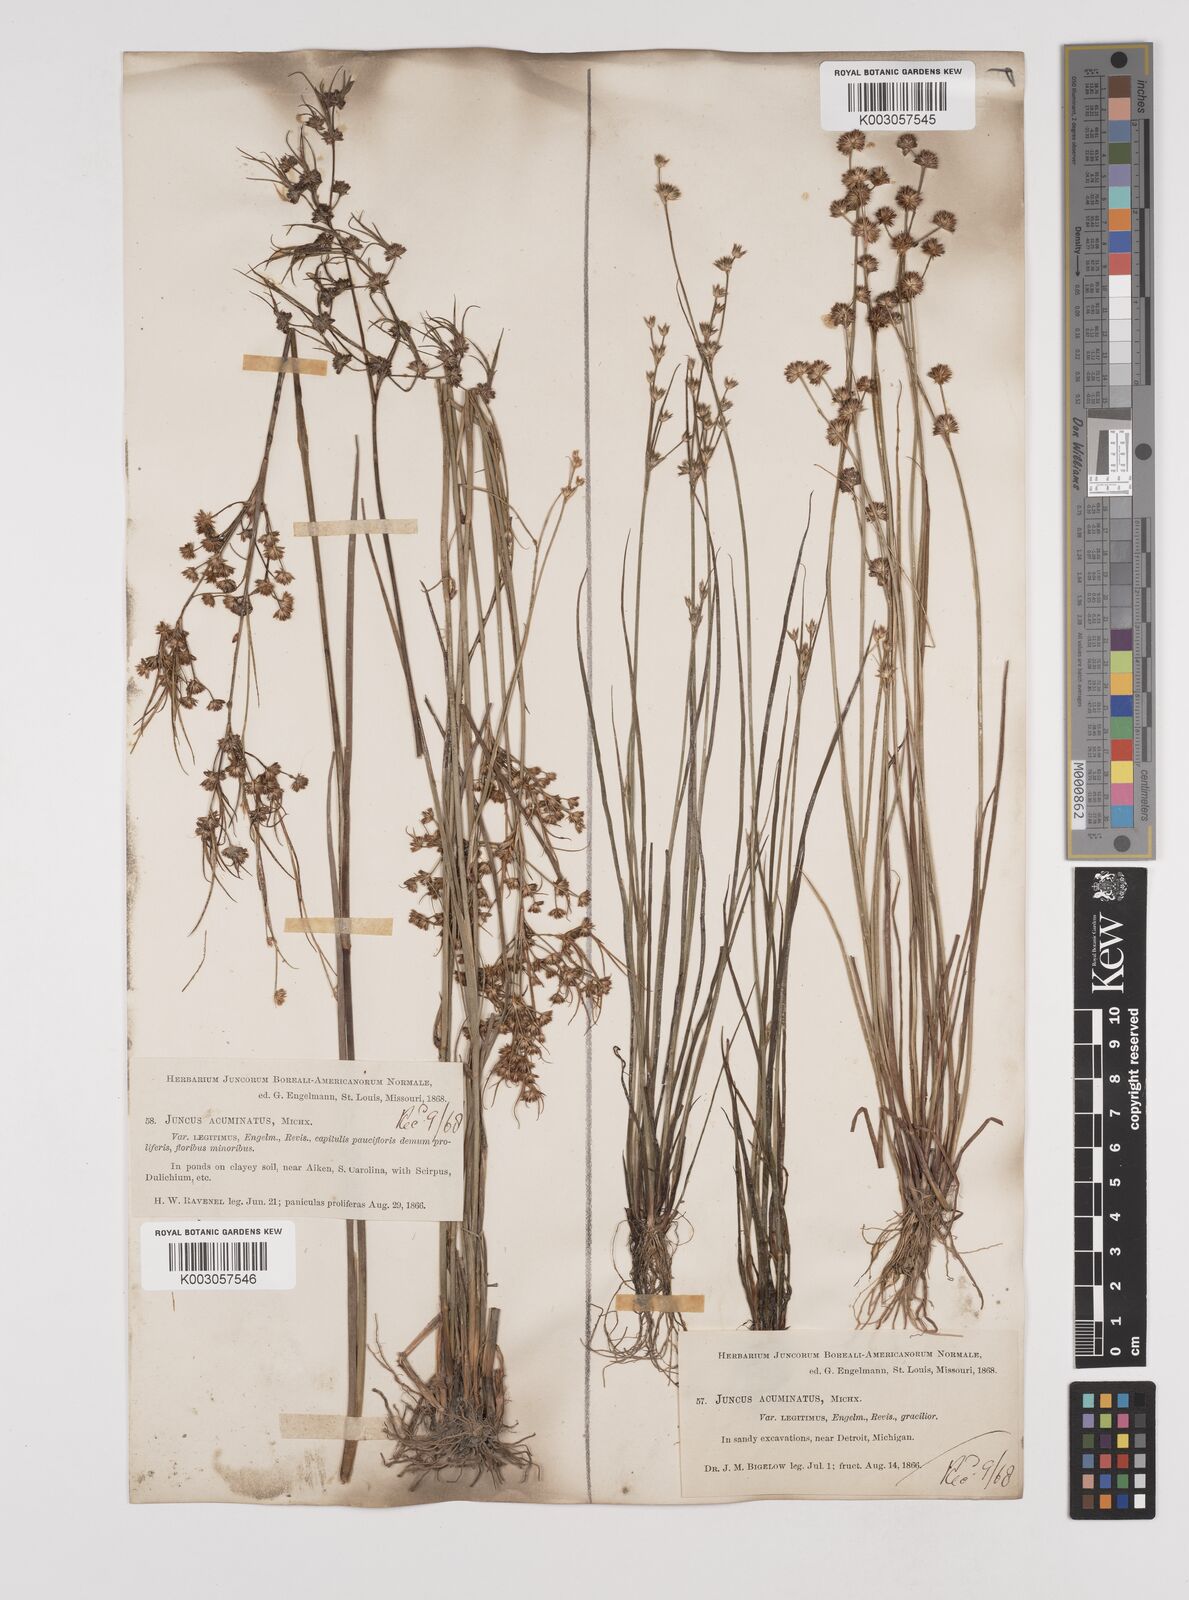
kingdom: Plantae
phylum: Tracheophyta
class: Liliopsida
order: Poales
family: Juncaceae
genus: Juncus
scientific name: Juncus acuminatus
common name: Knotty-leaved rush
